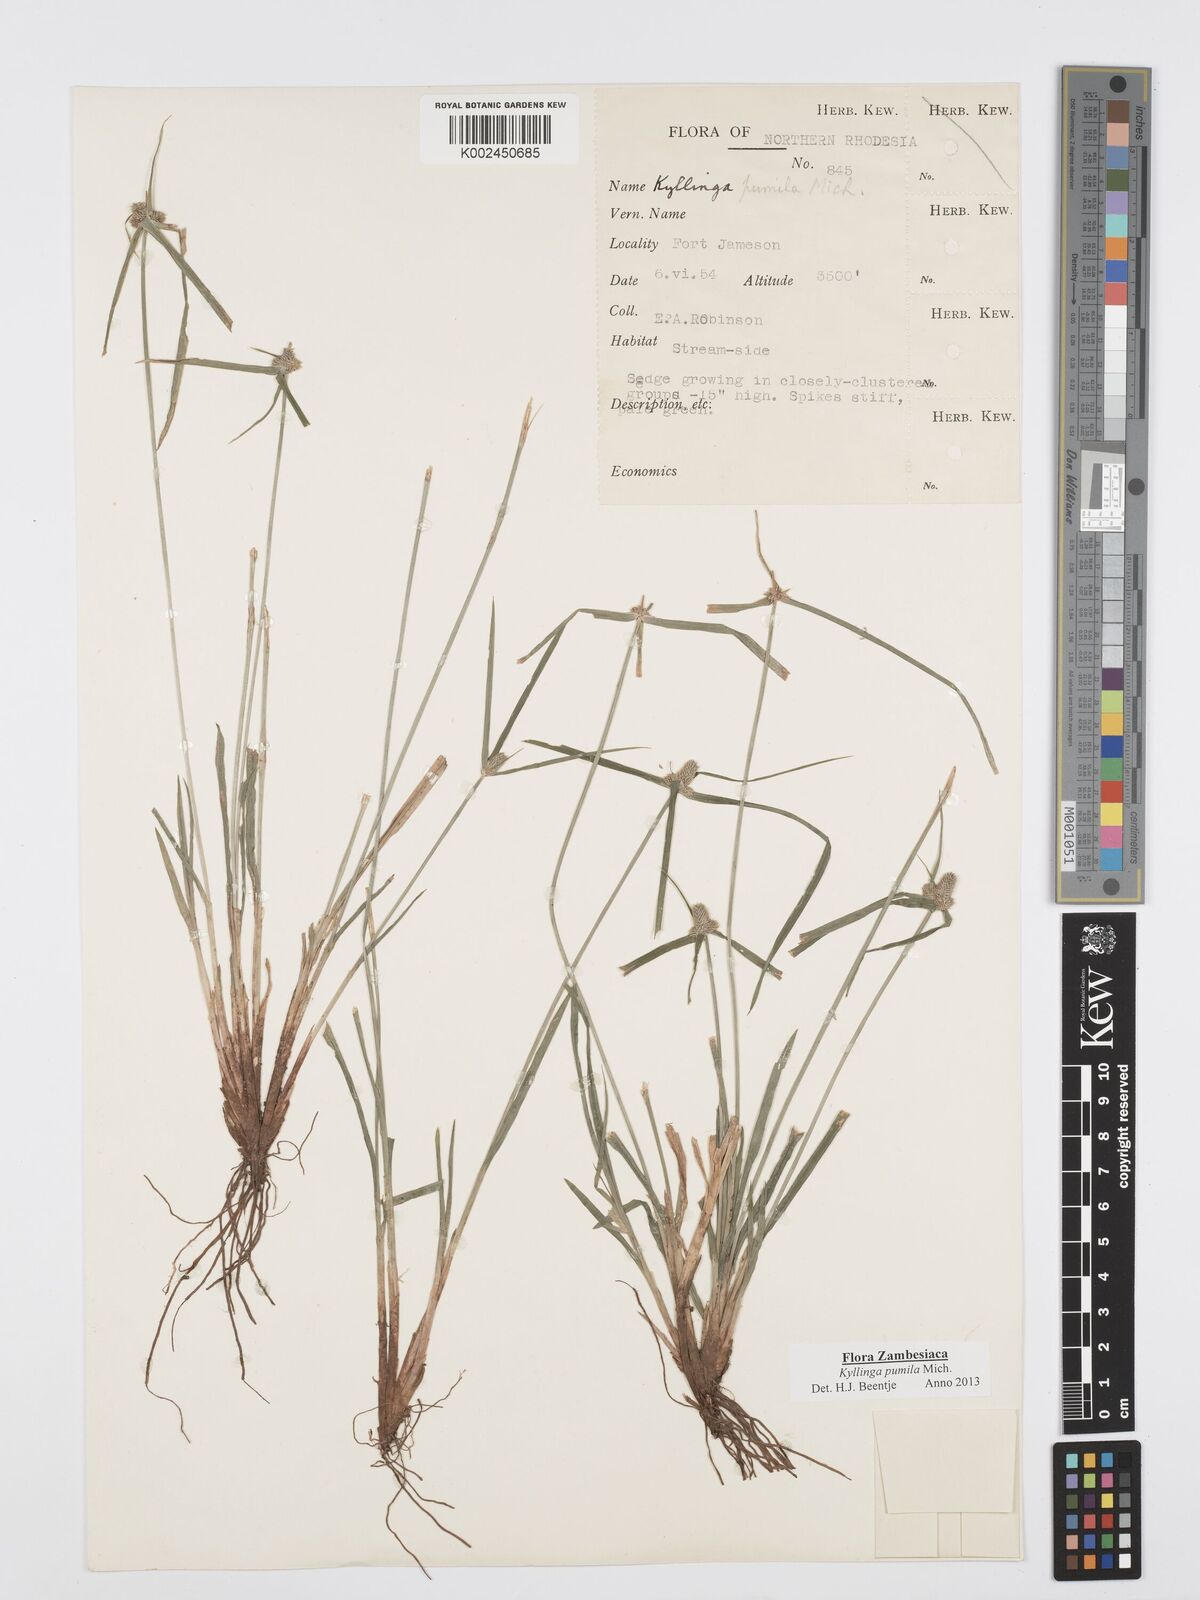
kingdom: Plantae
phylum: Tracheophyta
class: Liliopsida
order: Poales
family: Cyperaceae
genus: Cyperus
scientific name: Cyperus pumilus
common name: Low flatsedge
